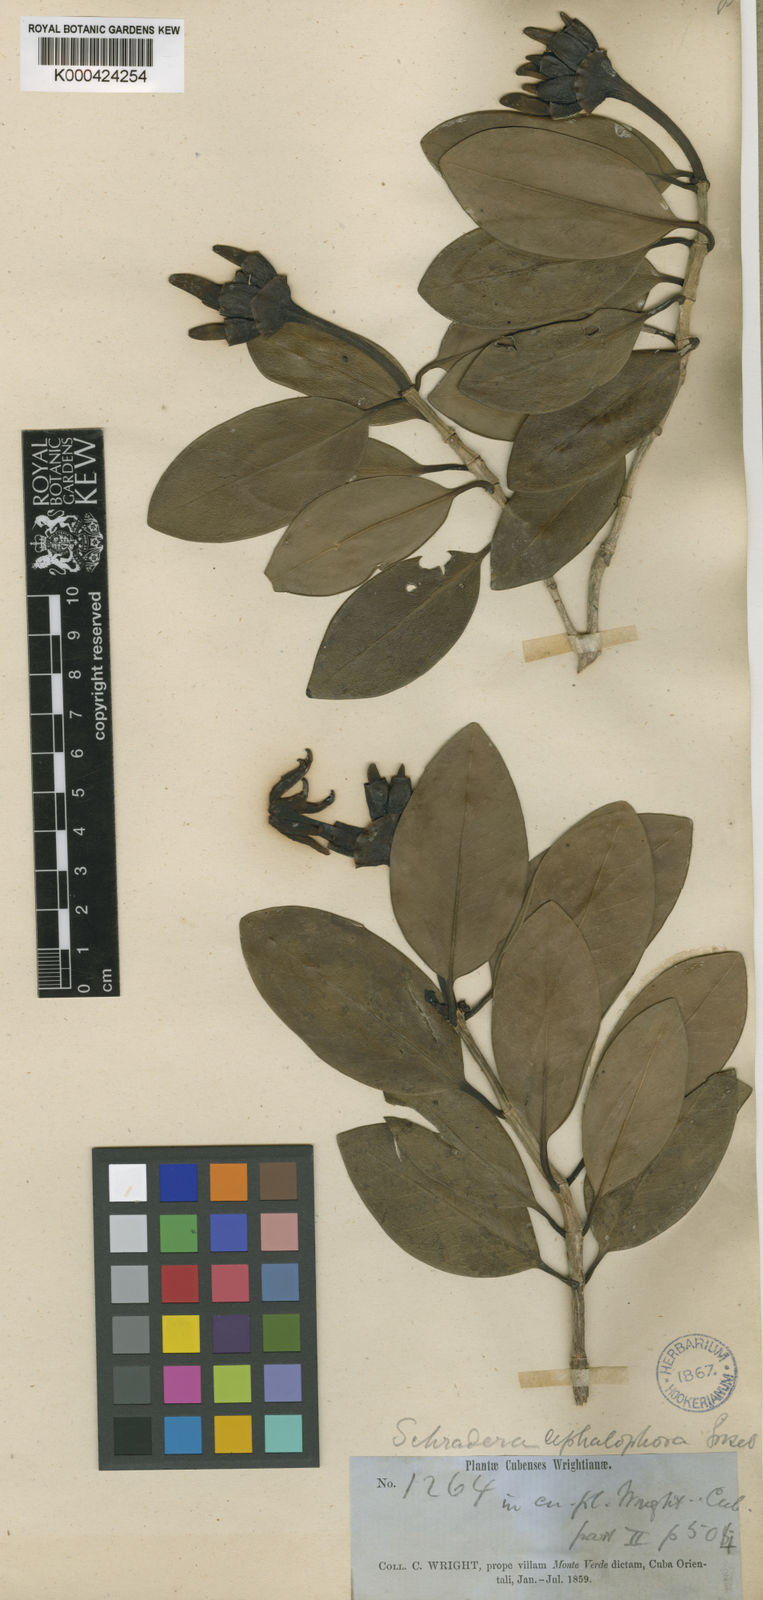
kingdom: Plantae
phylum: Tracheophyta
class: Magnoliopsida
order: Gentianales
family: Rubiaceae
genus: Schradera
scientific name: Schradera exotica
